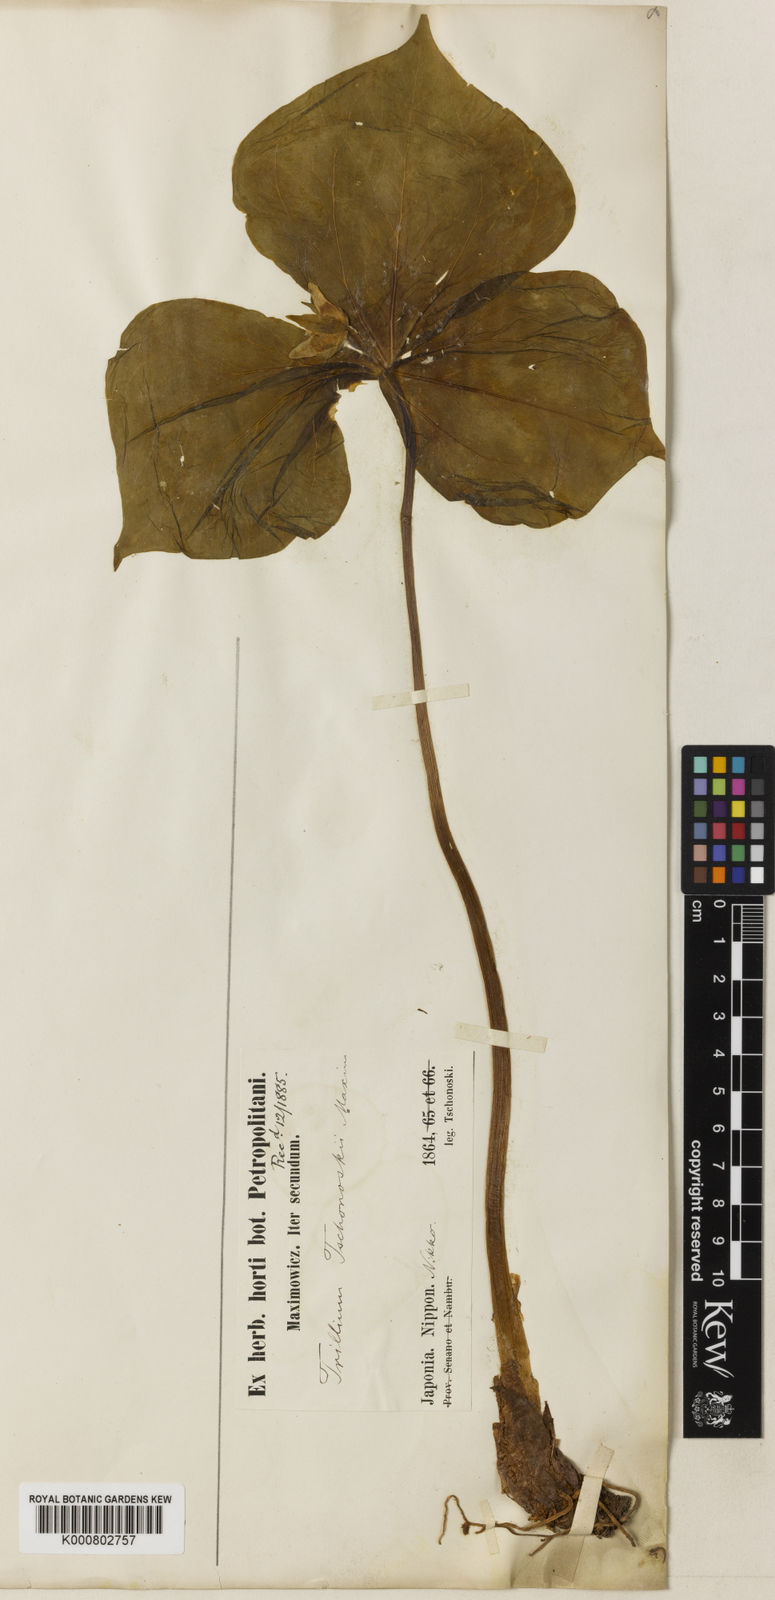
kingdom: Plantae
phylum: Tracheophyta
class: Liliopsida
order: Liliales
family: Melanthiaceae
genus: Trillium
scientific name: Trillium tschonoskii
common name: A pearl on head
